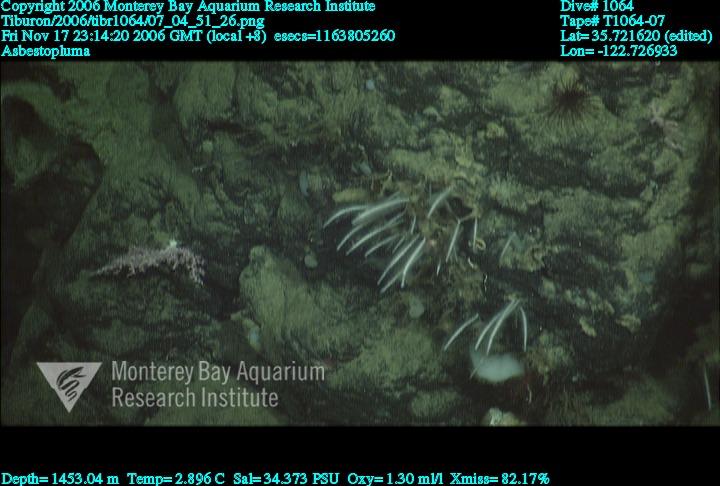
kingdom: Animalia
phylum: Porifera
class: Demospongiae
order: Poecilosclerida
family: Cladorhizidae
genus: Asbestopluma
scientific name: Asbestopluma
